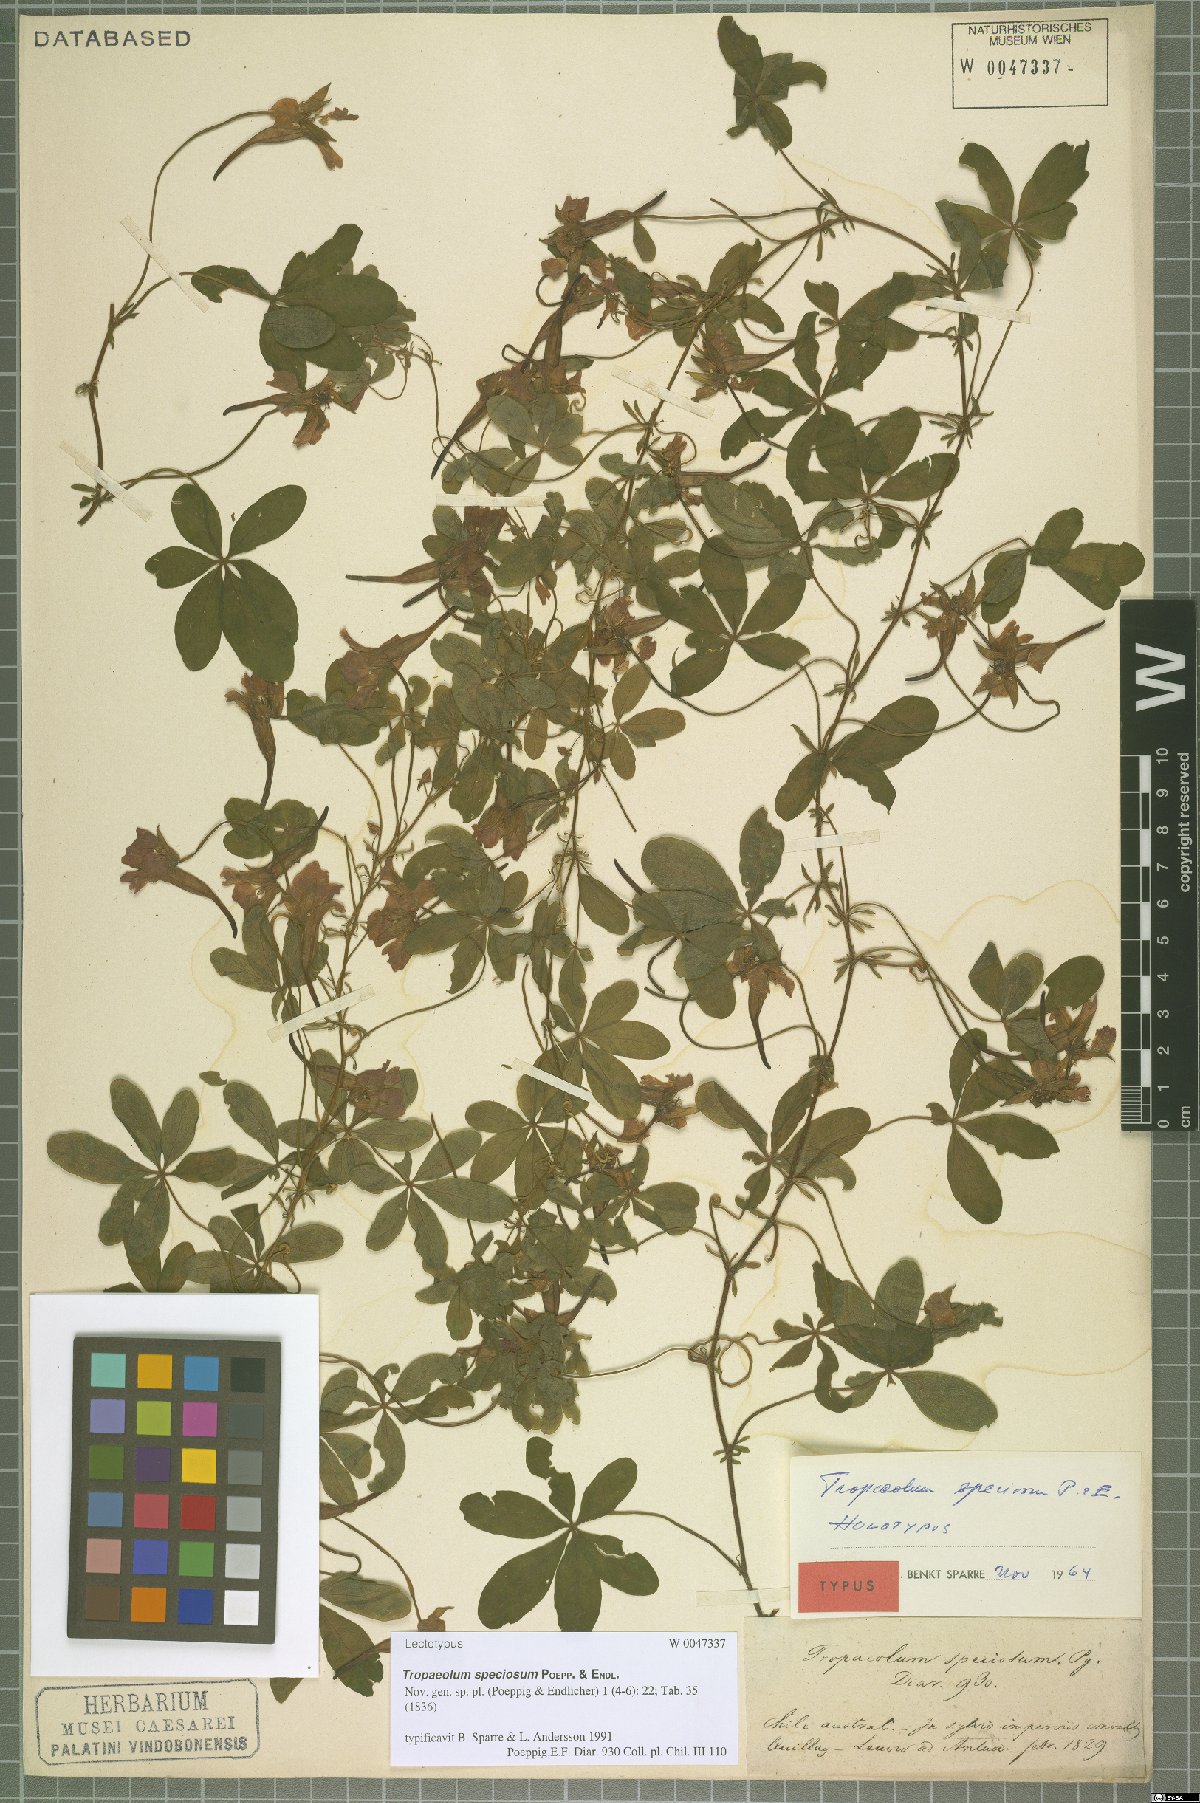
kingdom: Plantae
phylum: Tracheophyta
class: Magnoliopsida
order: Brassicales
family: Tropaeolaceae
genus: Tropaeolum
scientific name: Tropaeolum speciosum
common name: Flame nasturtium
